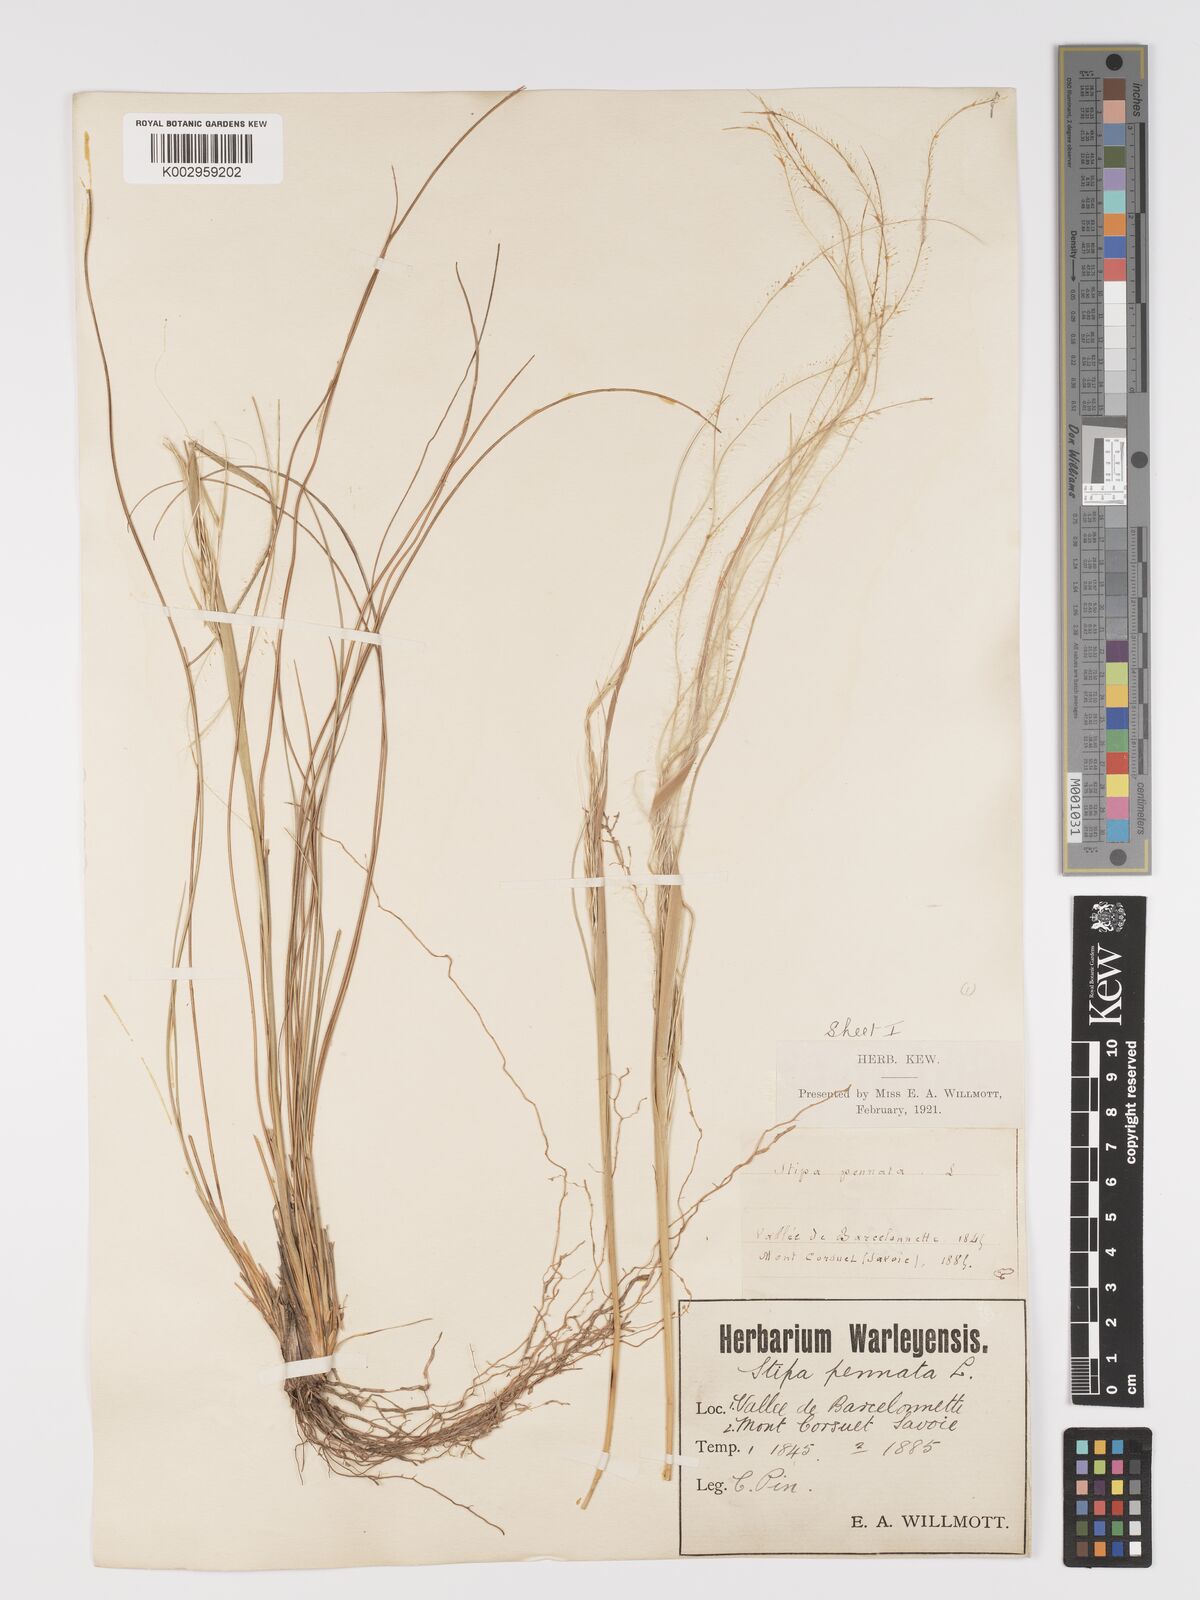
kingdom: Plantae
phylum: Tracheophyta
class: Liliopsida
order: Poales
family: Poaceae
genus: Stipa
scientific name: Stipa pennata
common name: European feather grass
